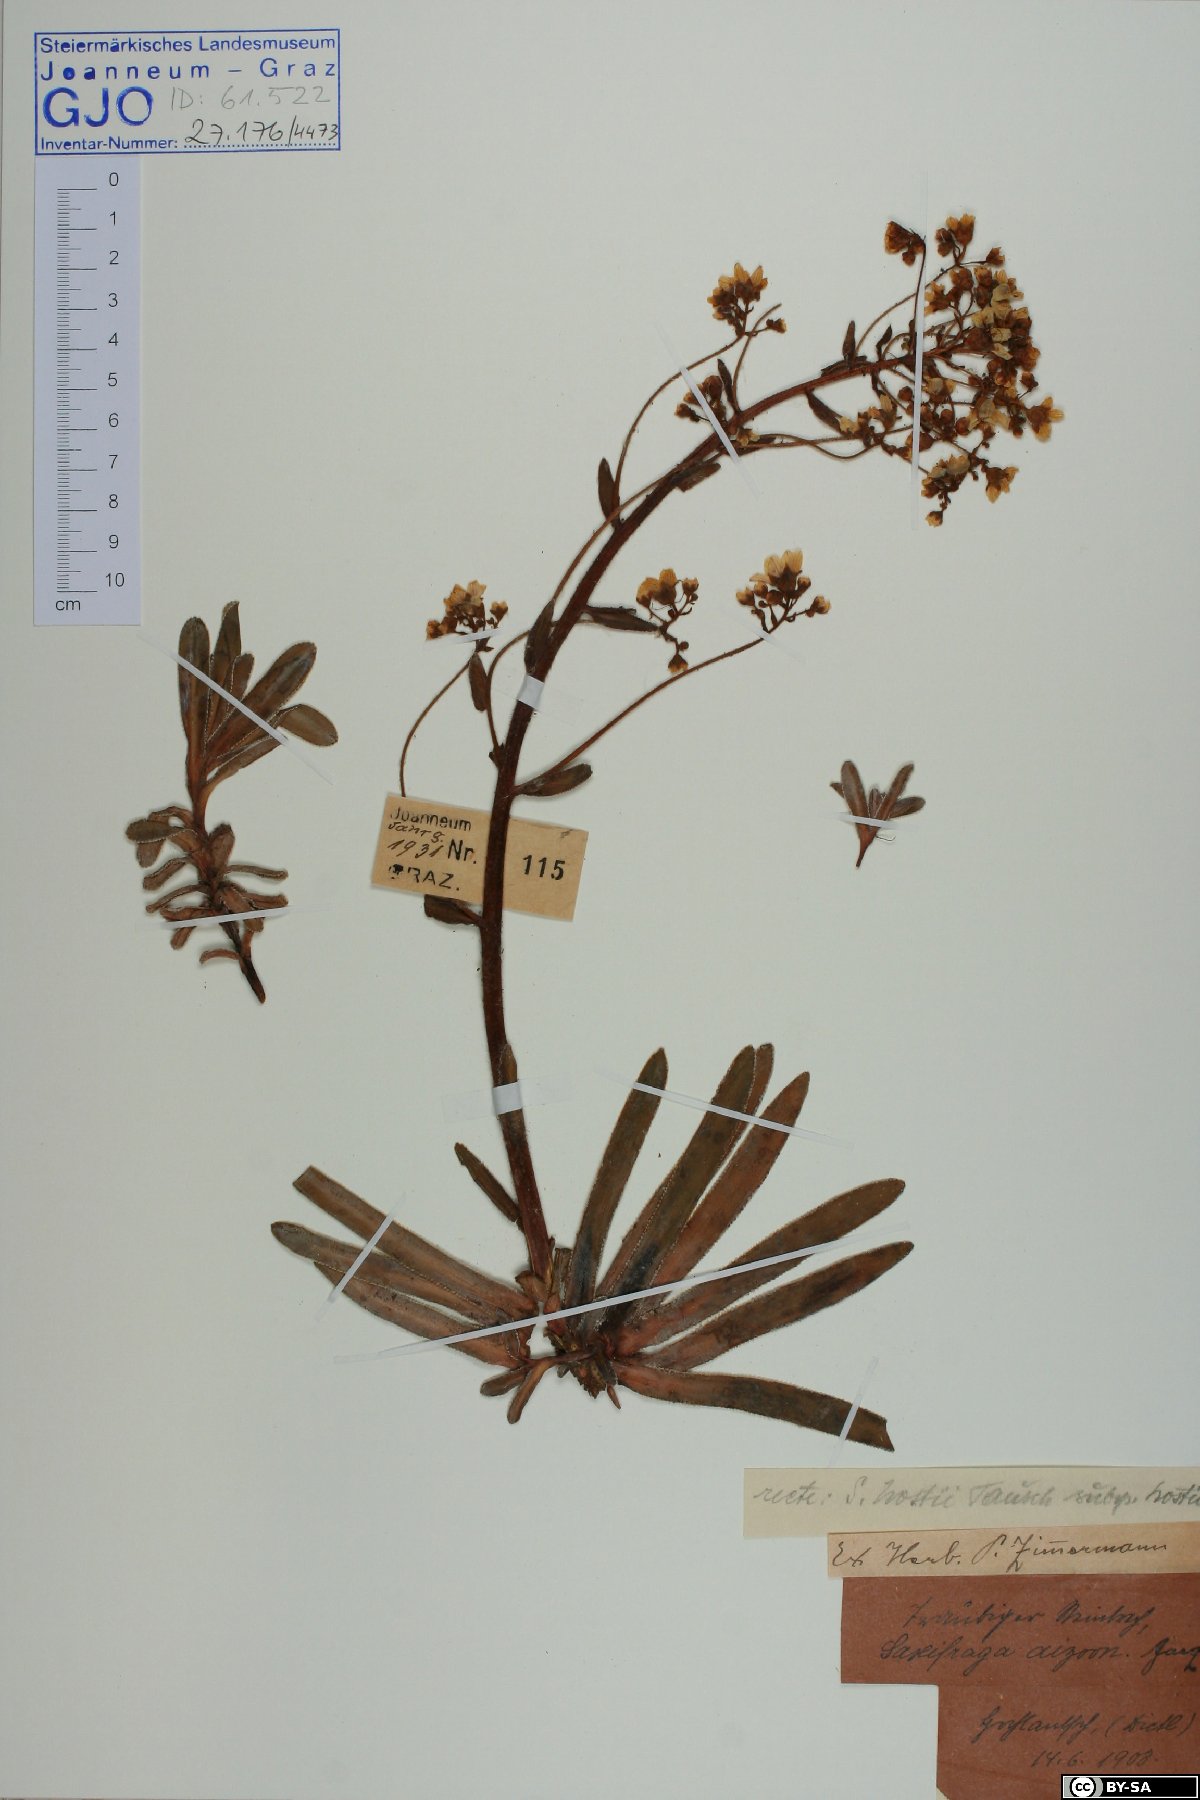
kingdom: Plantae
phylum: Tracheophyta
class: Magnoliopsida
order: Saxifragales
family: Saxifragaceae
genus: Saxifraga
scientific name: Saxifraga hostii
